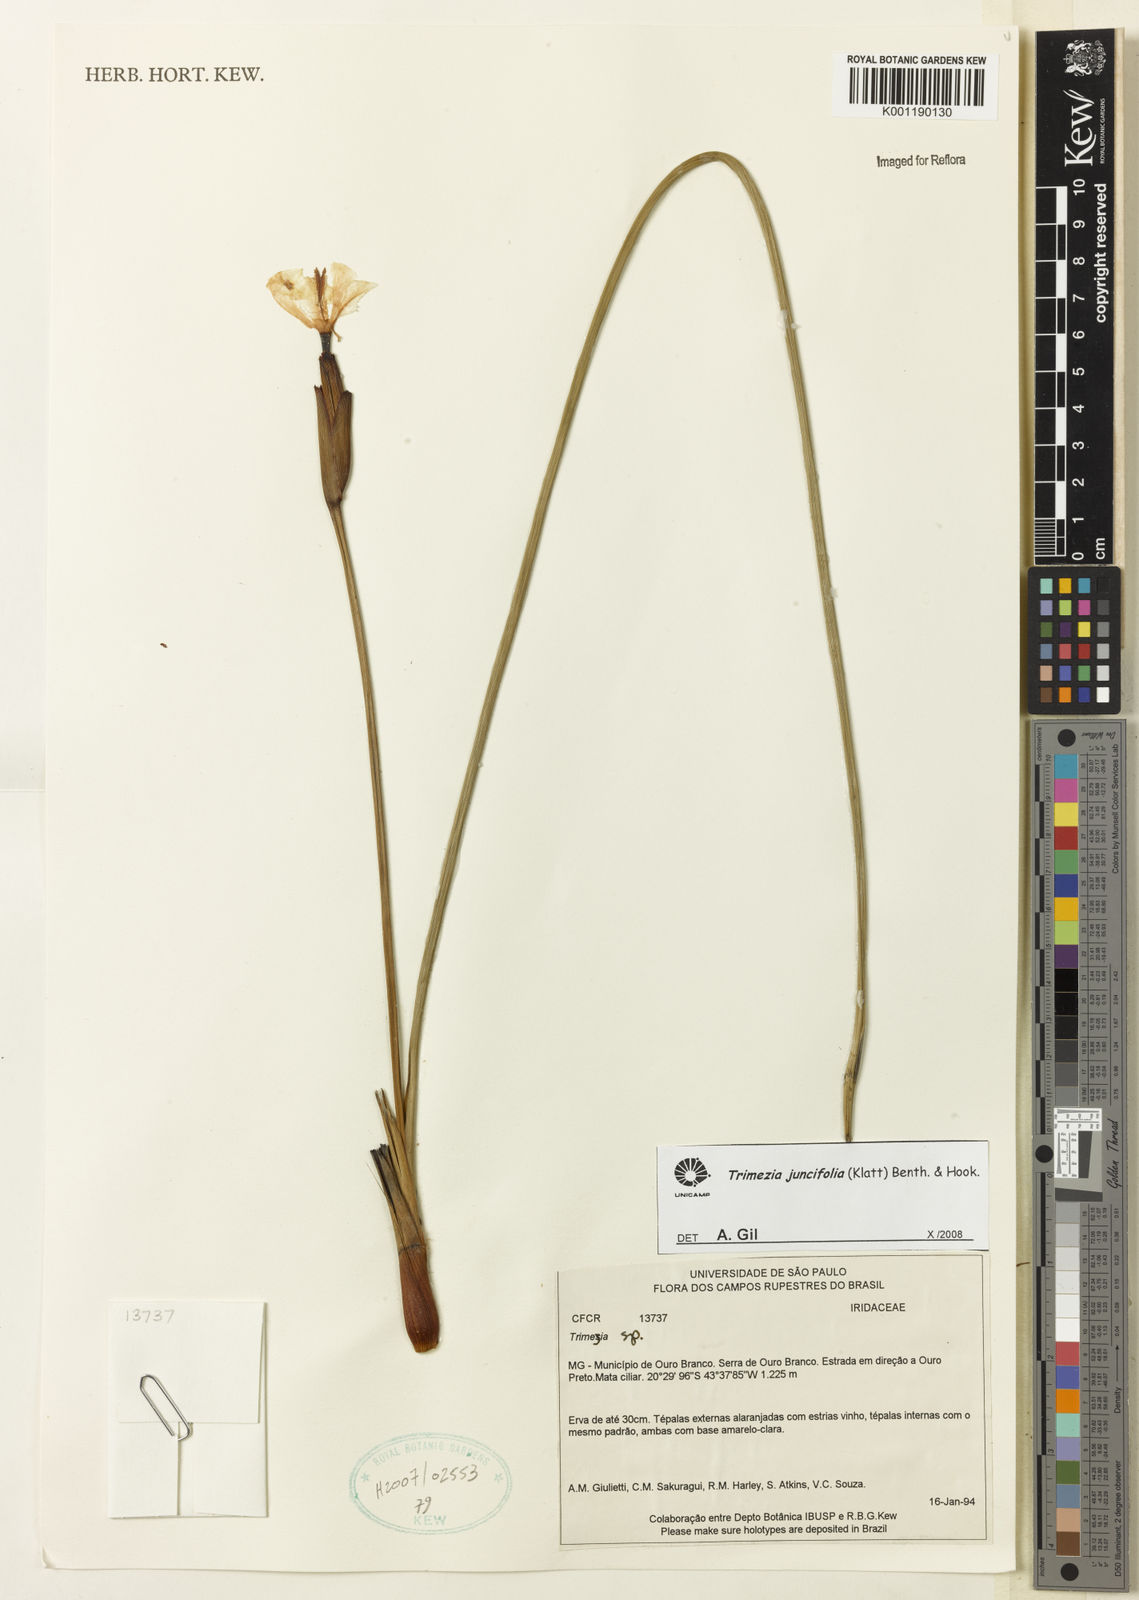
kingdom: Plantae
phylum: Tracheophyta
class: Liliopsida
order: Asparagales
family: Iridaceae
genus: Trimezia
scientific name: Trimezia juncifolia
